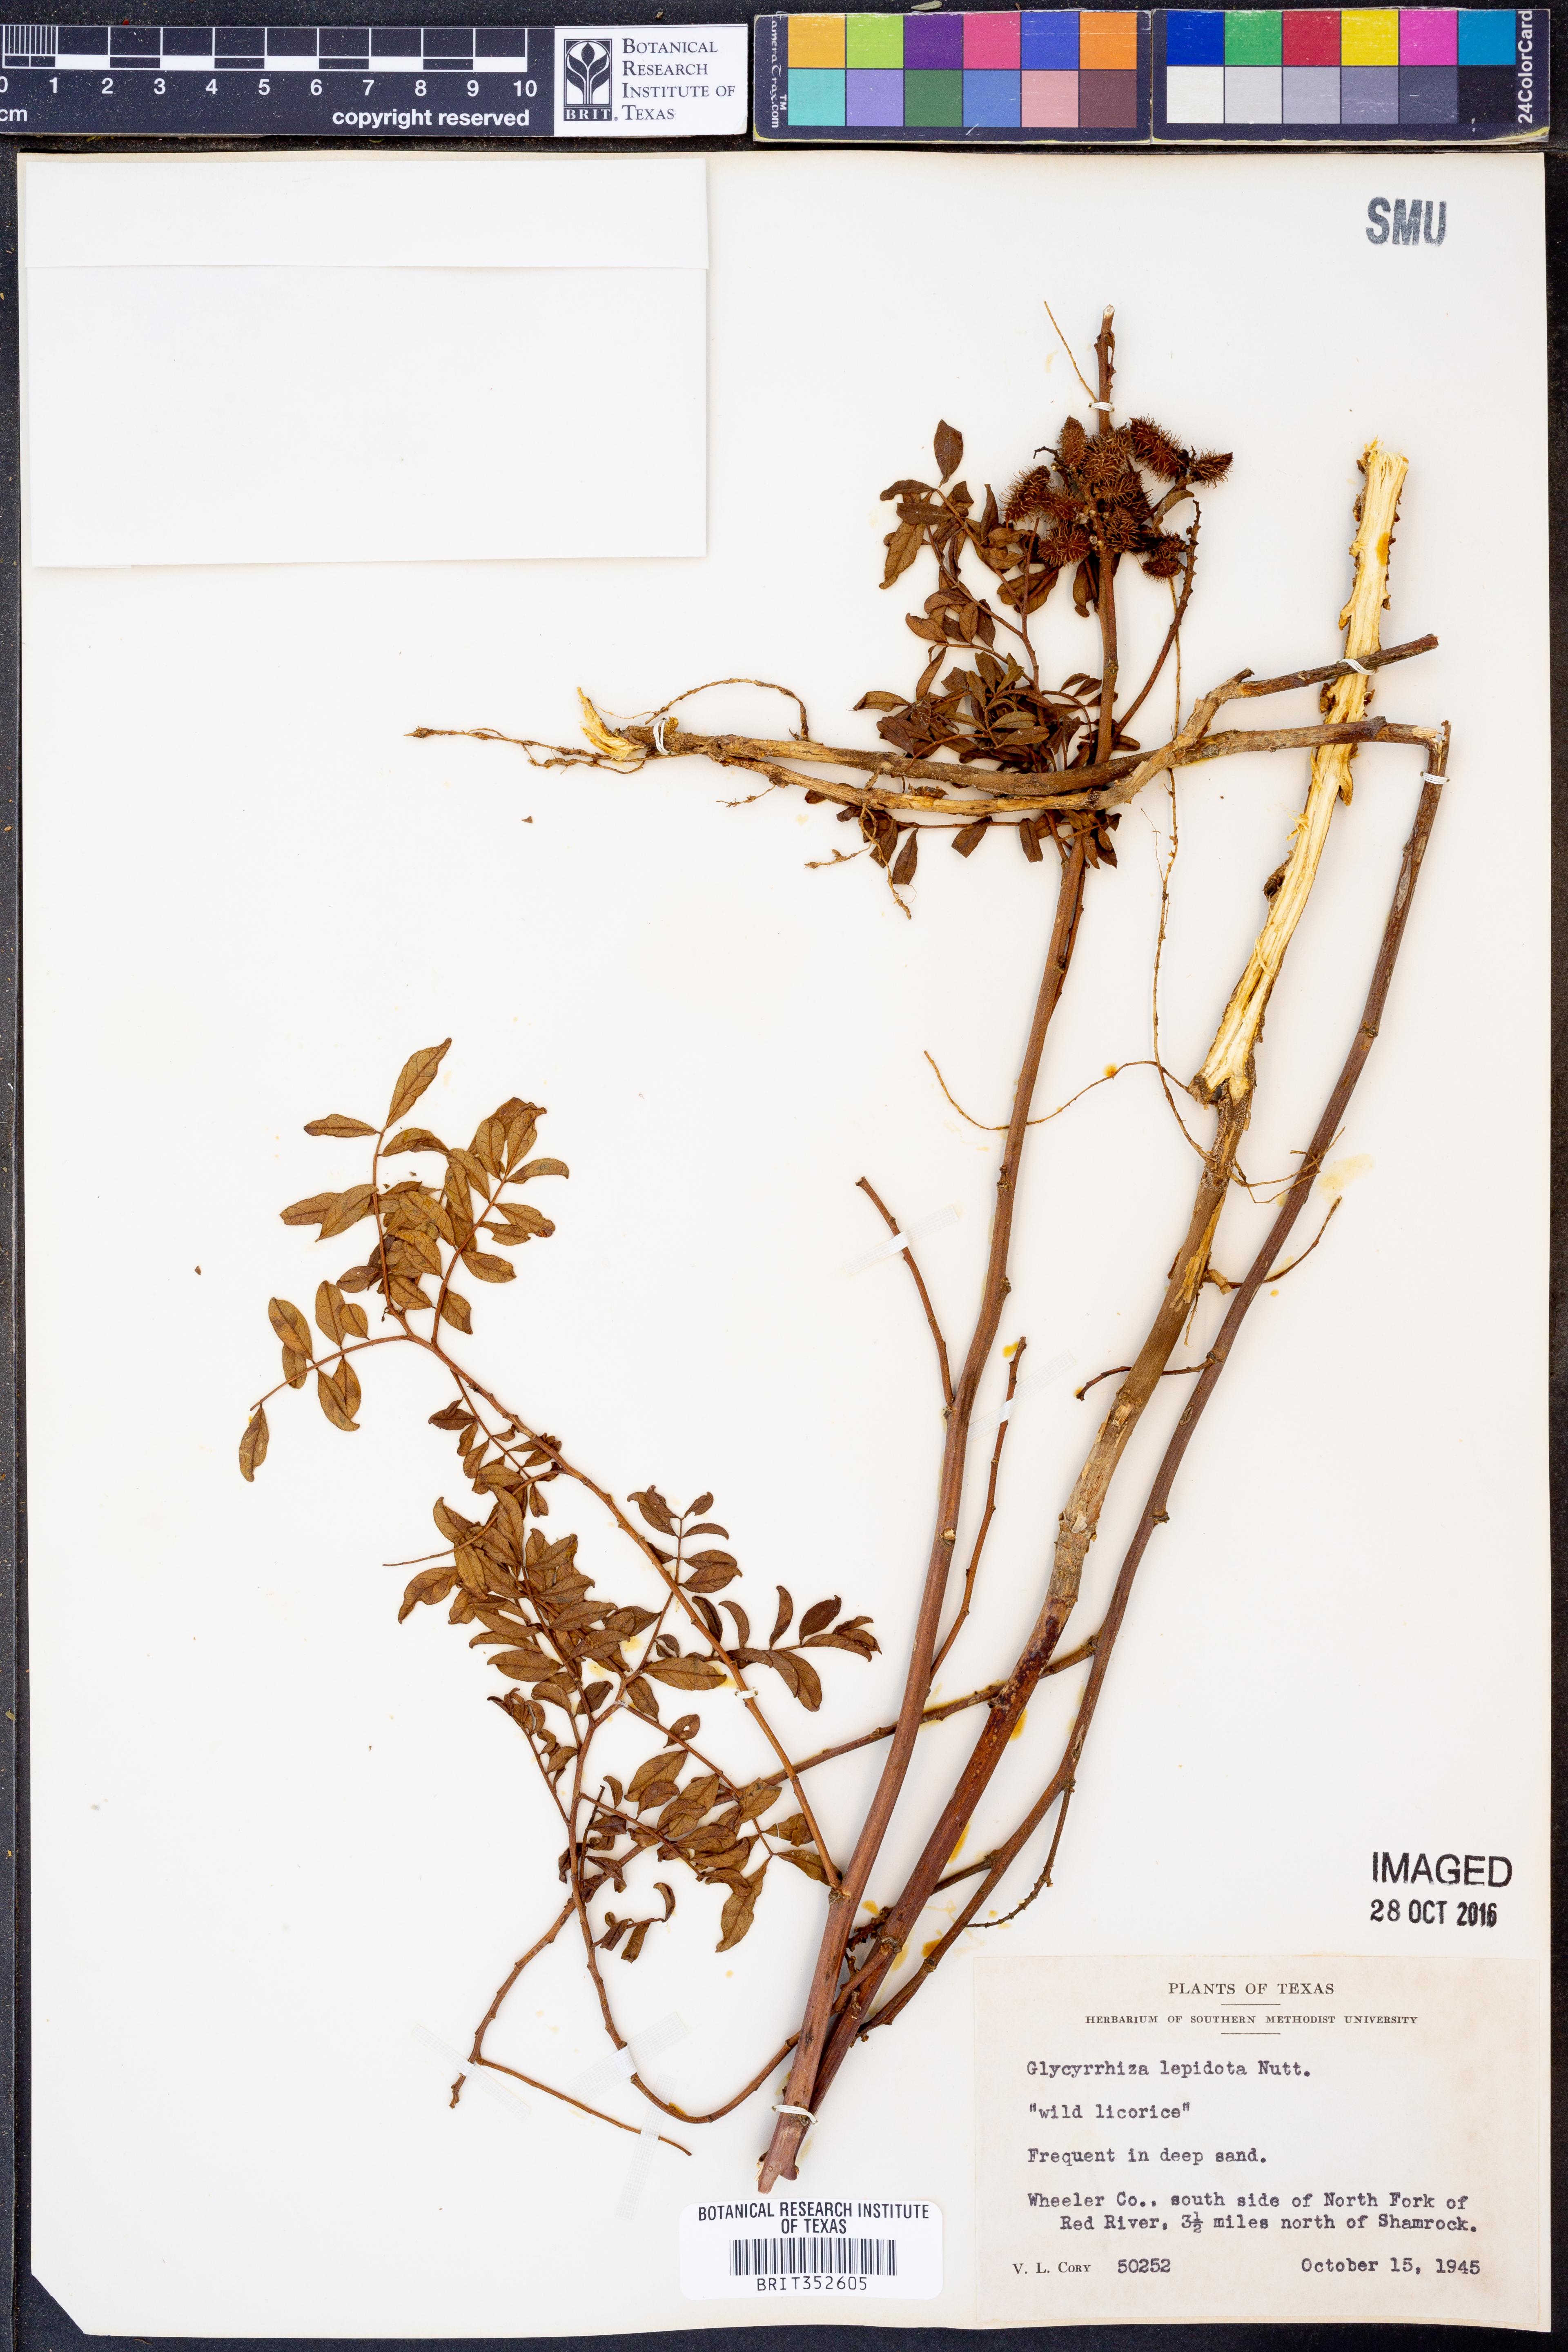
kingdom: Plantae
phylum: Tracheophyta
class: Magnoliopsida
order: Fabales
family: Fabaceae
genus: Glycyrrhiza
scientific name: Glycyrrhiza lepidota
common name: American liquorice
